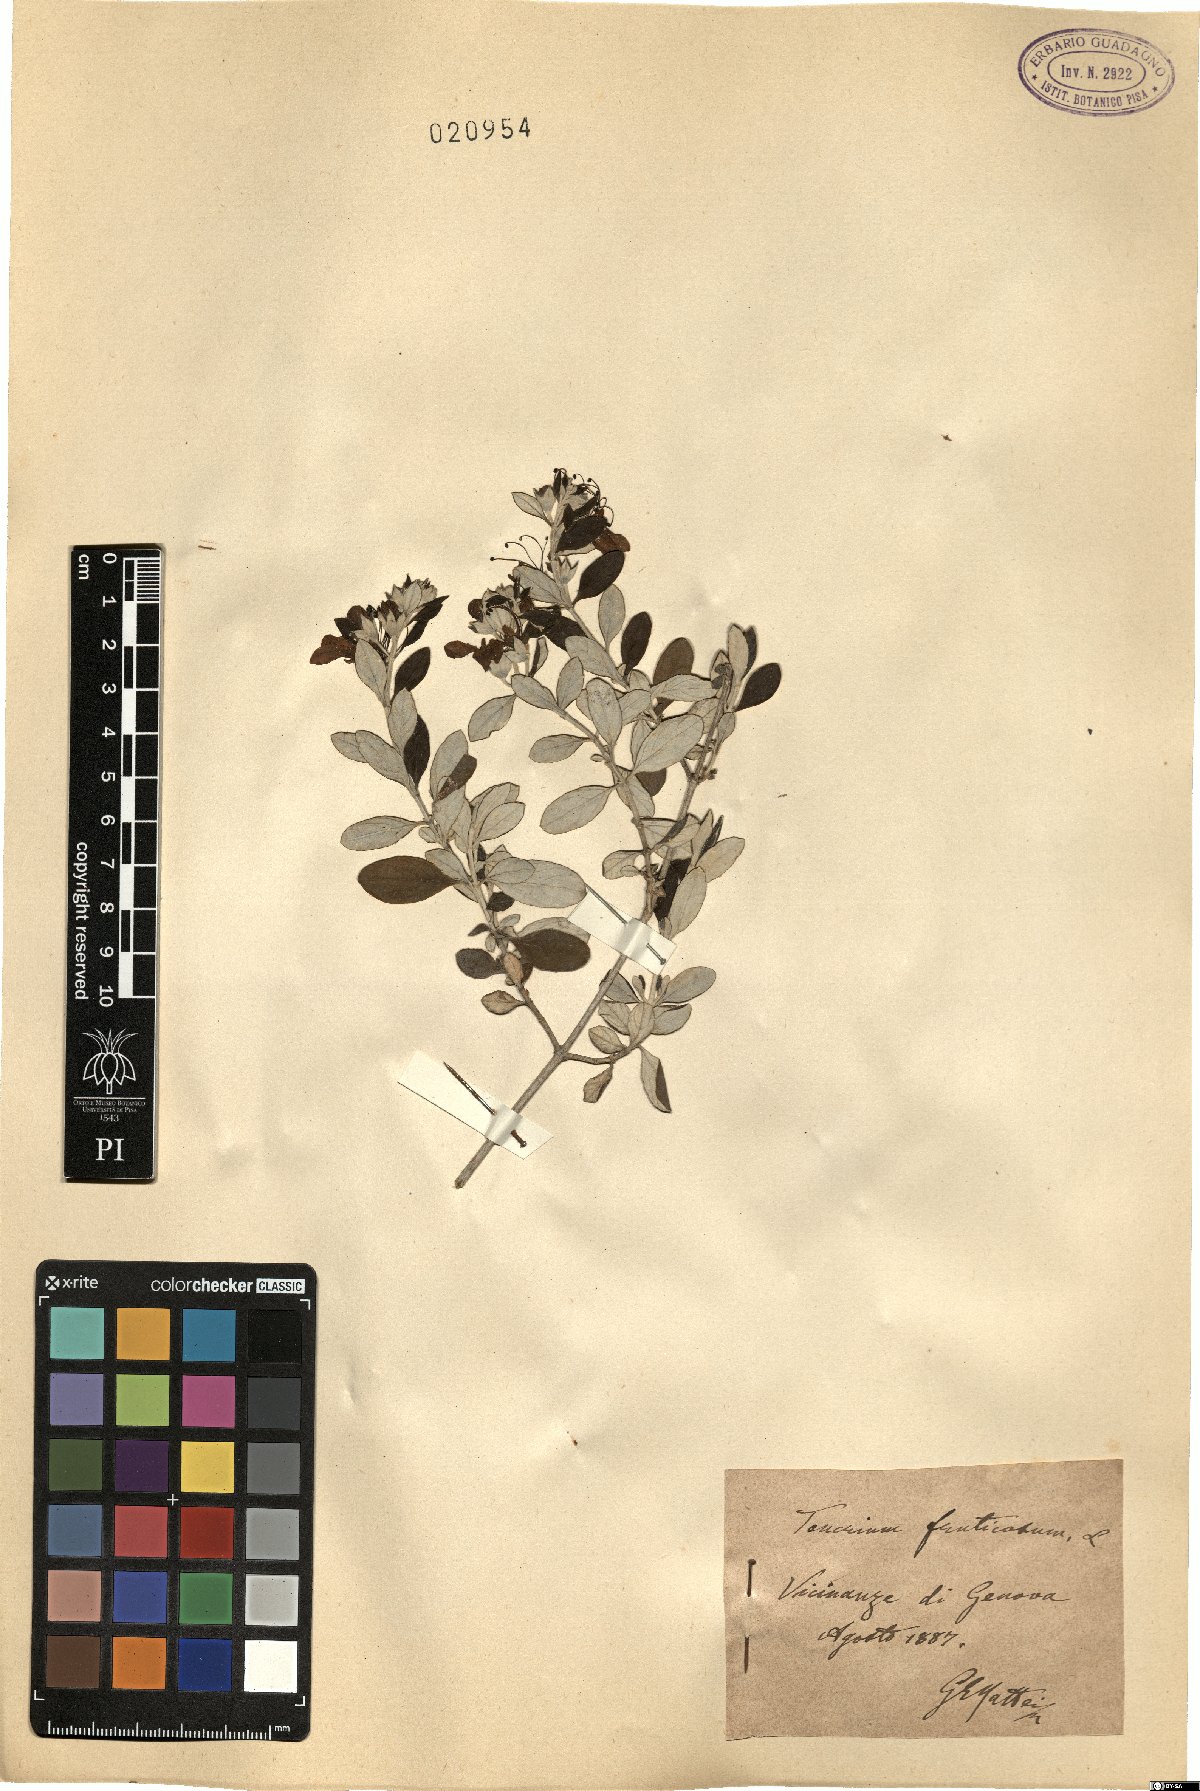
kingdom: Plantae
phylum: Tracheophyta
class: Magnoliopsida
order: Lamiales
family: Lamiaceae
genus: Teucrium
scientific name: Teucrium fruticans
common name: Shrubby germander
